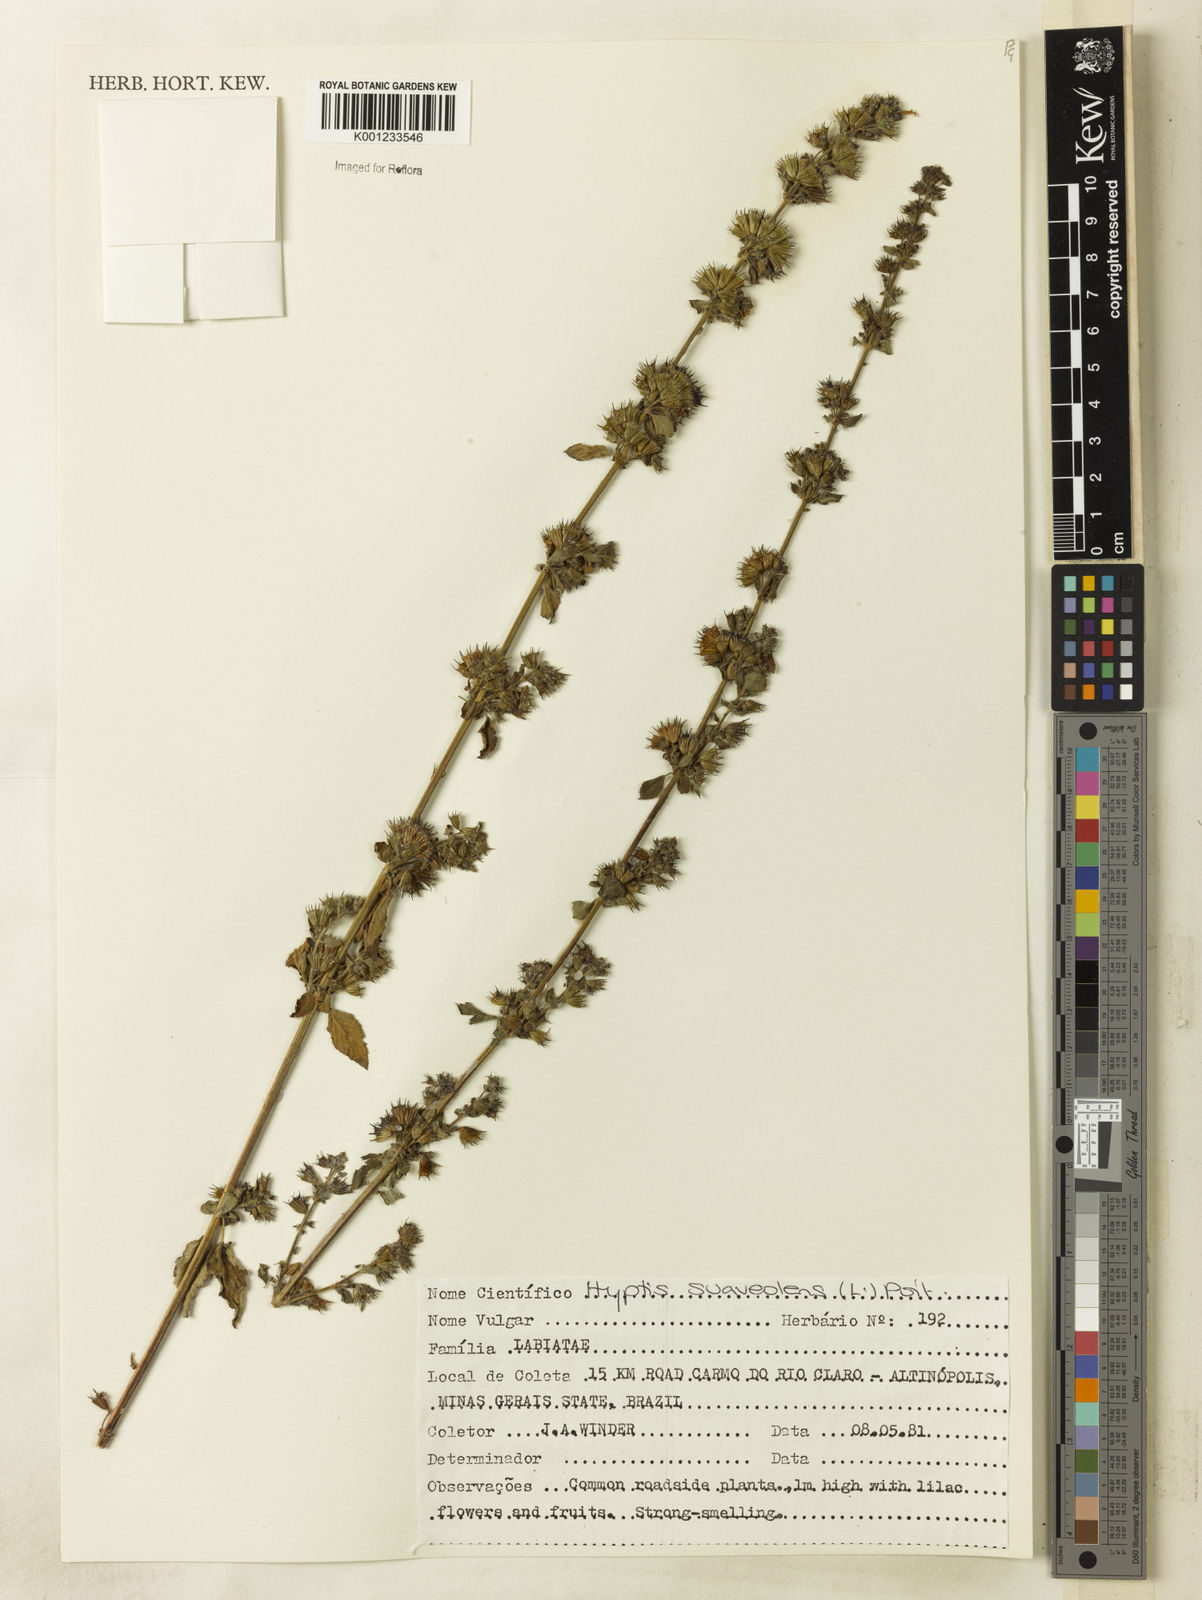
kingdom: Plantae
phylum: Tracheophyta
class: Magnoliopsida
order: Lamiales
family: Lamiaceae
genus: Mesosphaerum
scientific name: Mesosphaerum suaveolens
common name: Pignut
